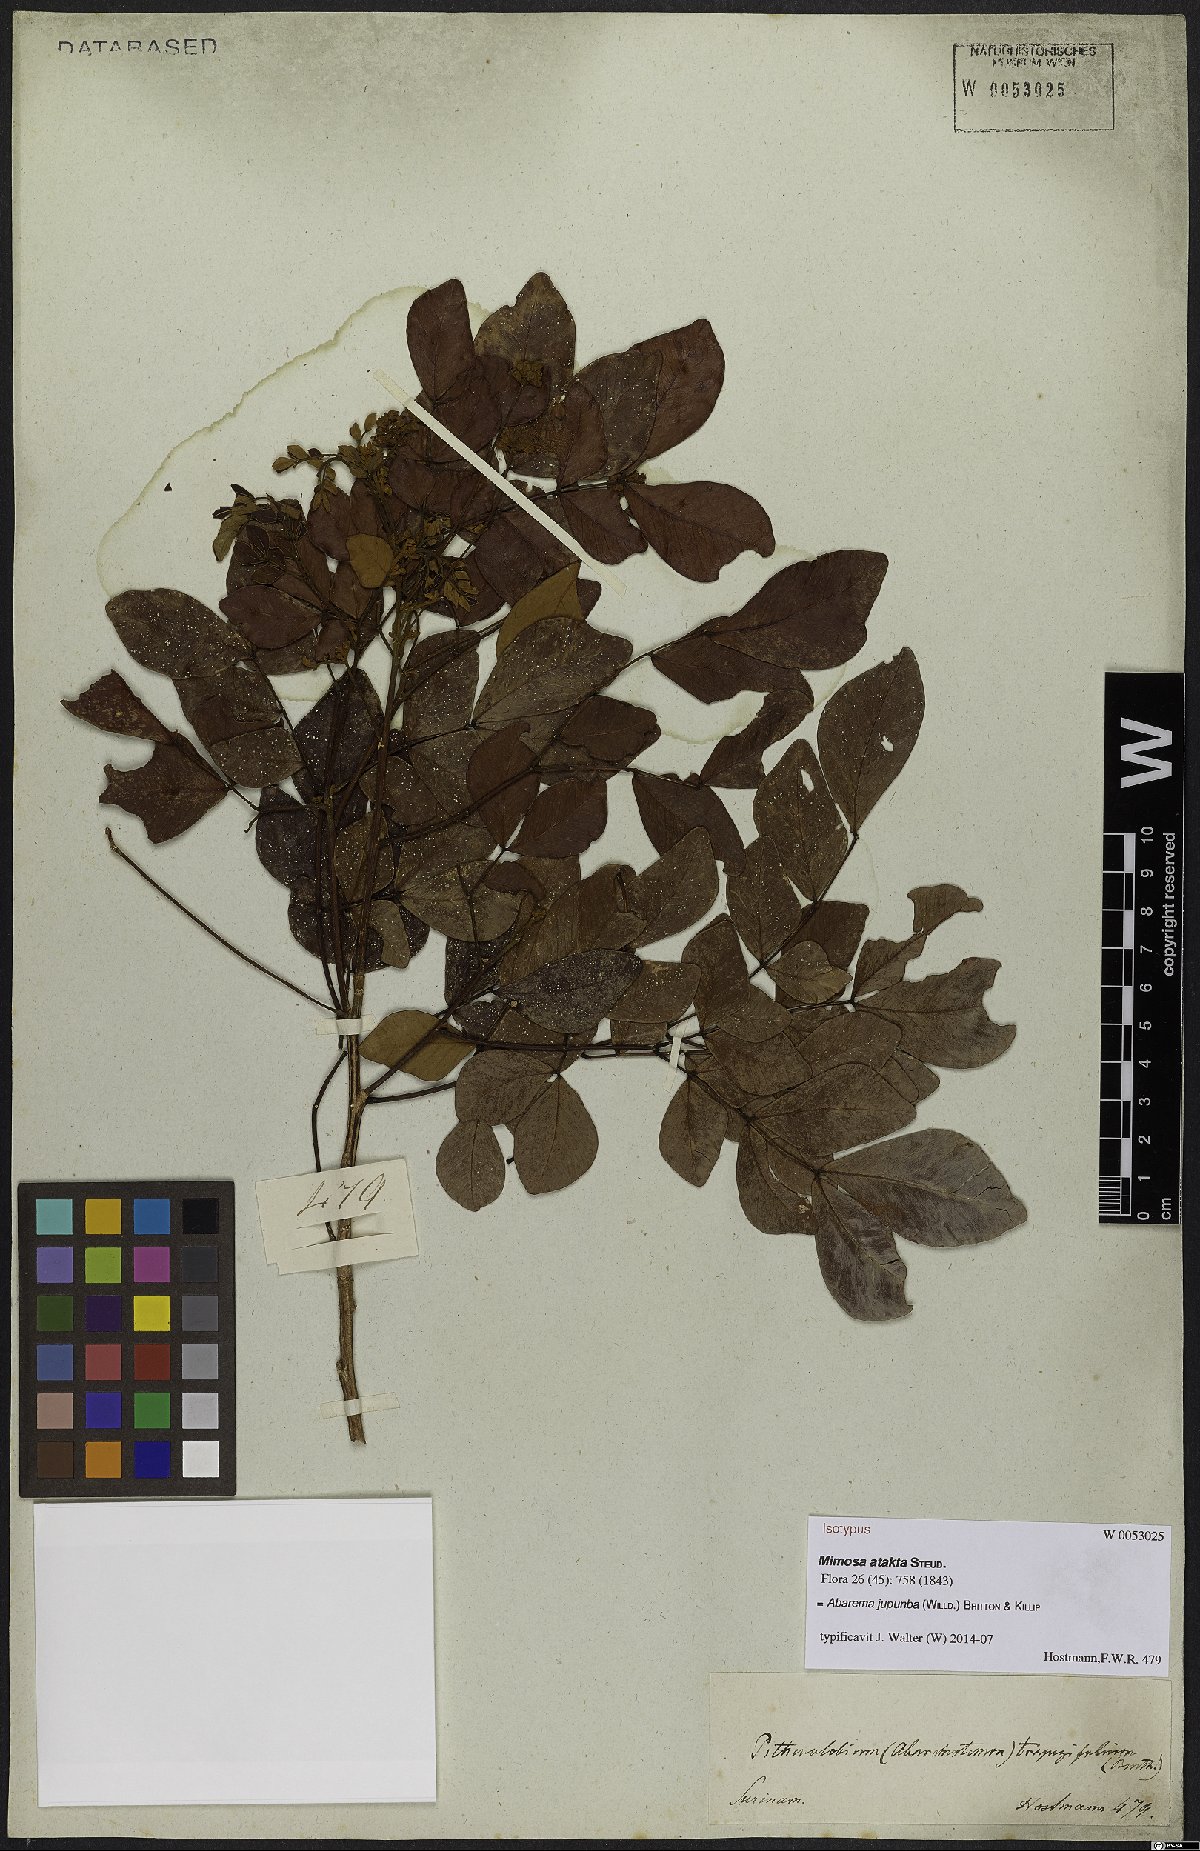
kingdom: Plantae
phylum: Tracheophyta
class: Magnoliopsida
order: Fabales
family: Fabaceae
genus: Jupunba
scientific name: Jupunba trapezifolia
